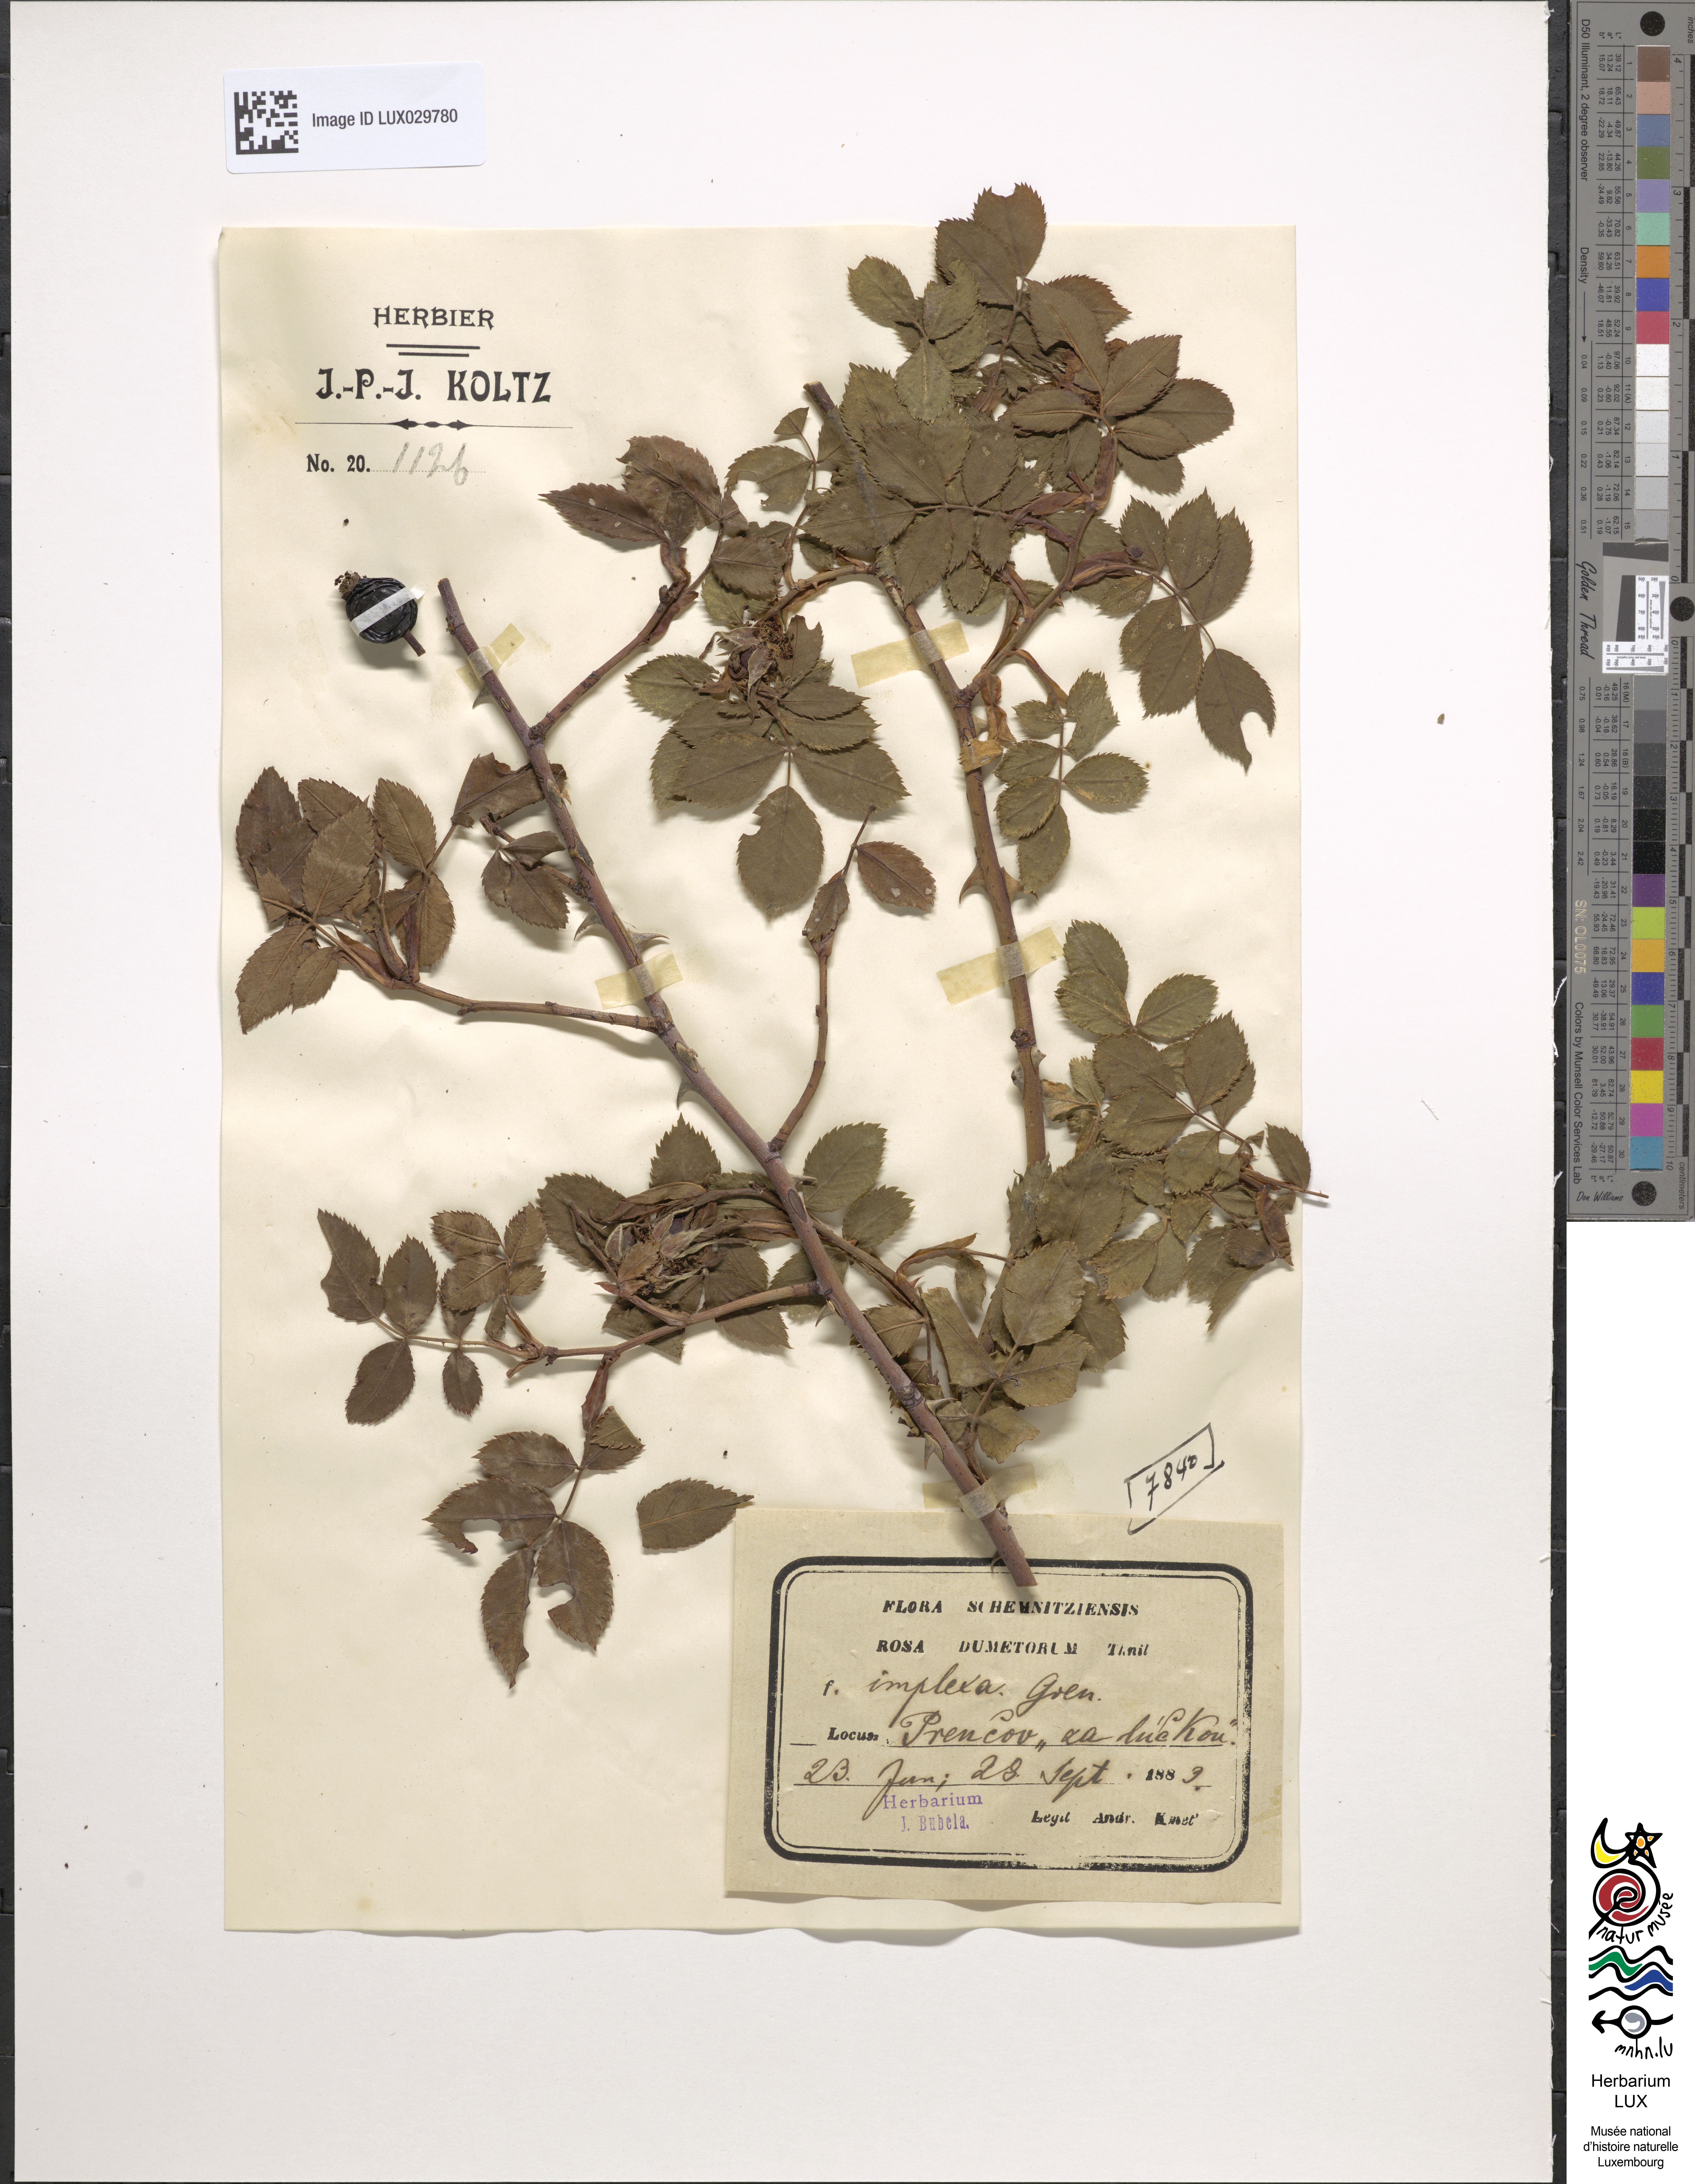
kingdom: Plantae
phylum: Tracheophyta
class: Magnoliopsida
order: Rosales
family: Rosaceae
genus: Rosa
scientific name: Rosa corymbifera
